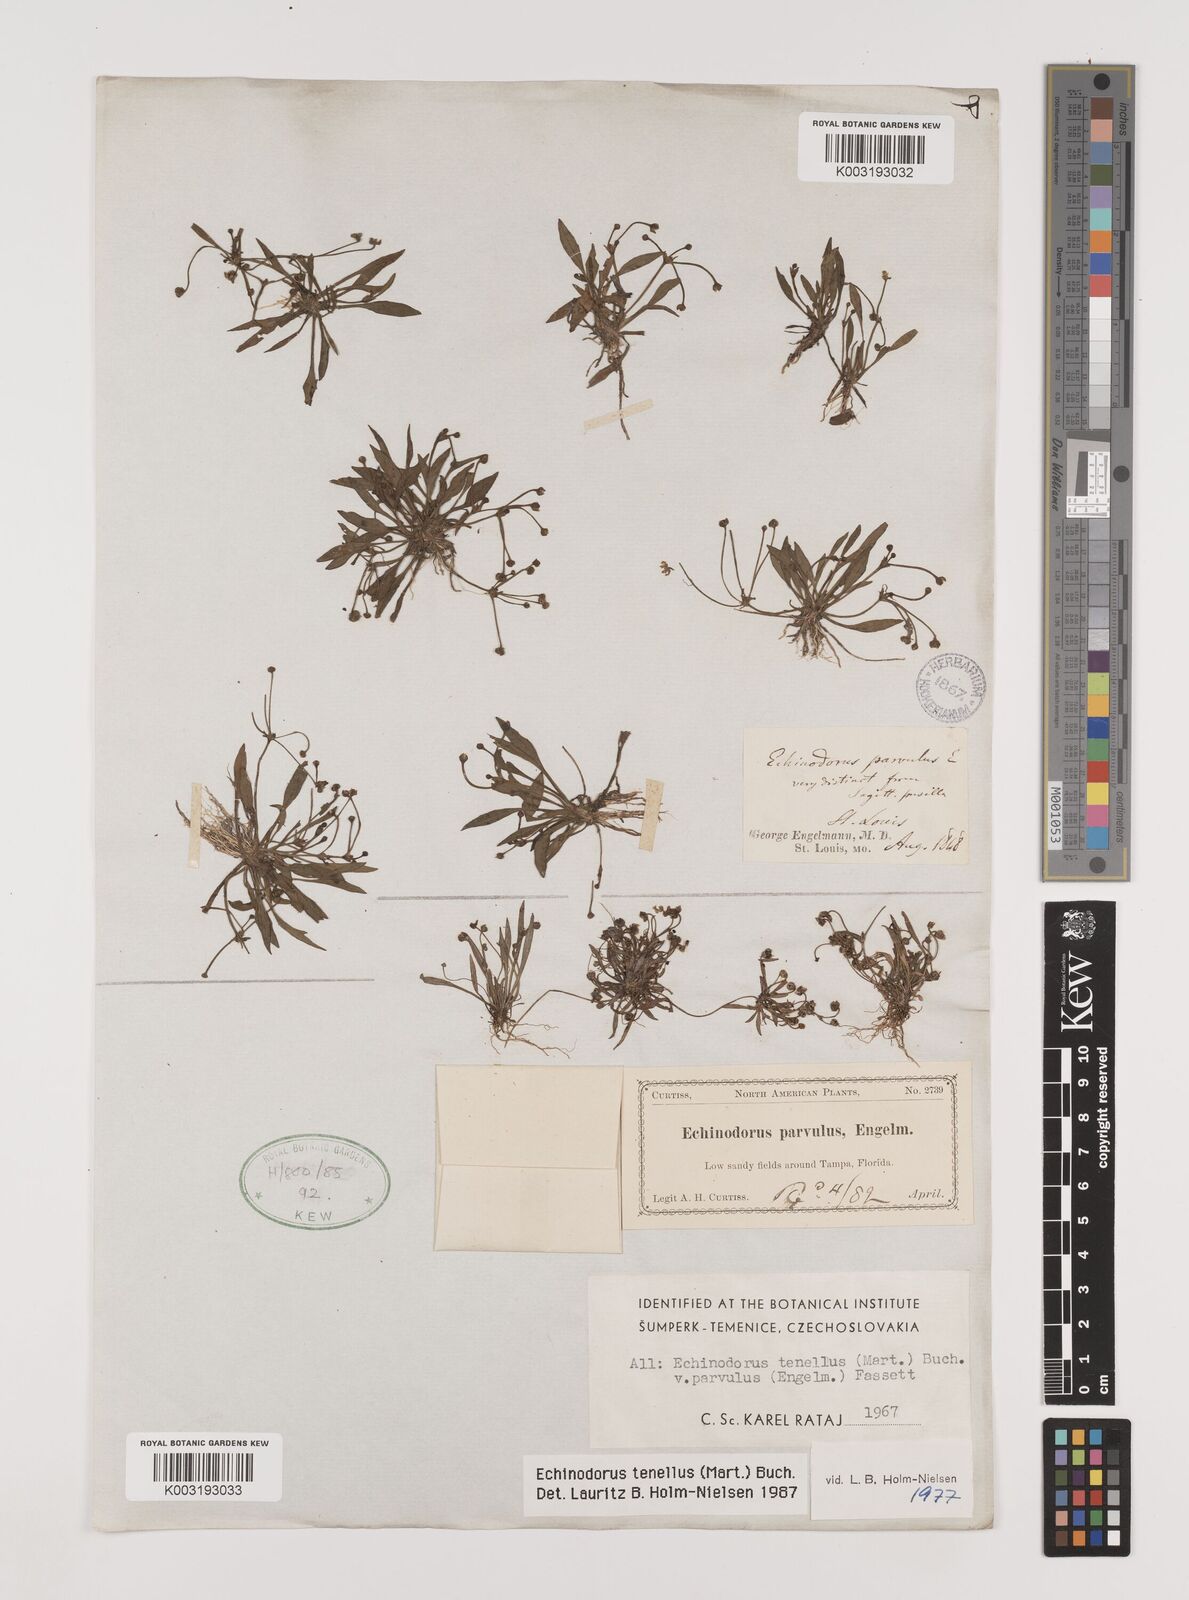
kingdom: Plantae
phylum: Tracheophyta
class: Liliopsida
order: Alismatales
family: Alismataceae
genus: Helanthium
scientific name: Helanthium tenellum
